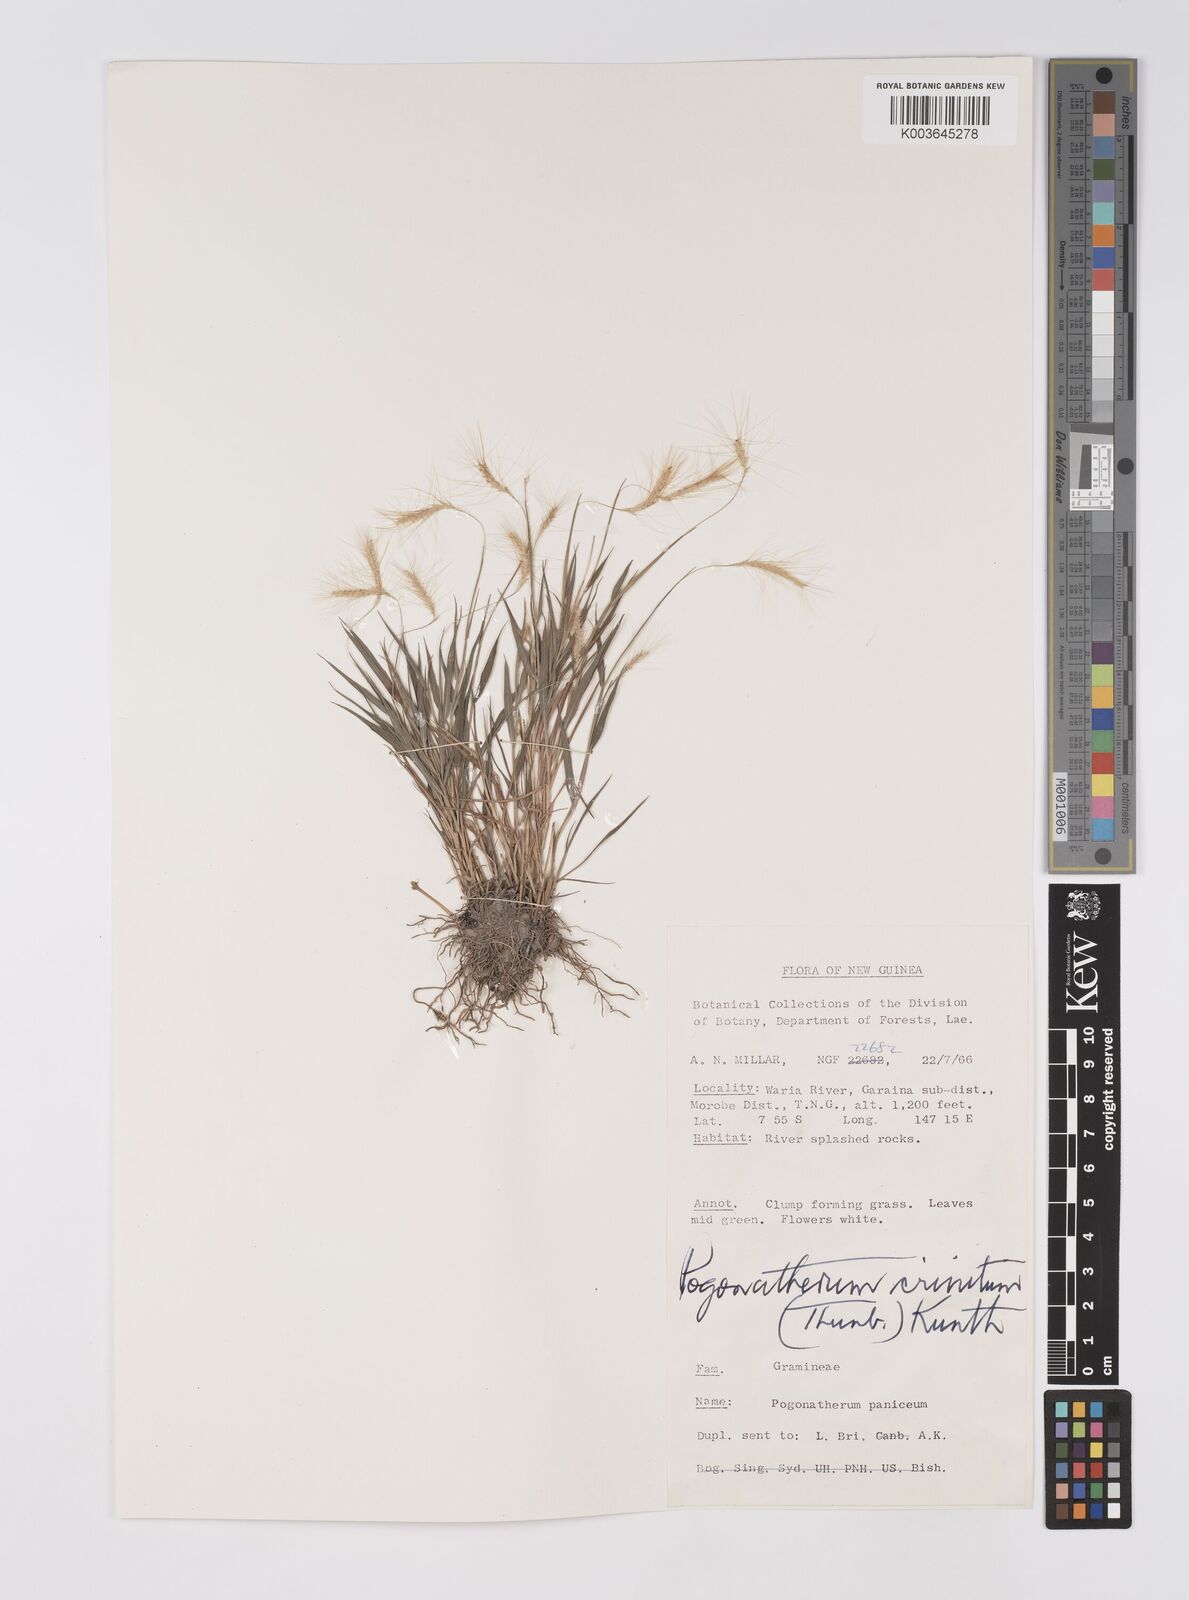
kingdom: Plantae
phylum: Tracheophyta
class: Liliopsida
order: Poales
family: Poaceae
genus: Pogonatherum
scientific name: Pogonatherum crinitum
